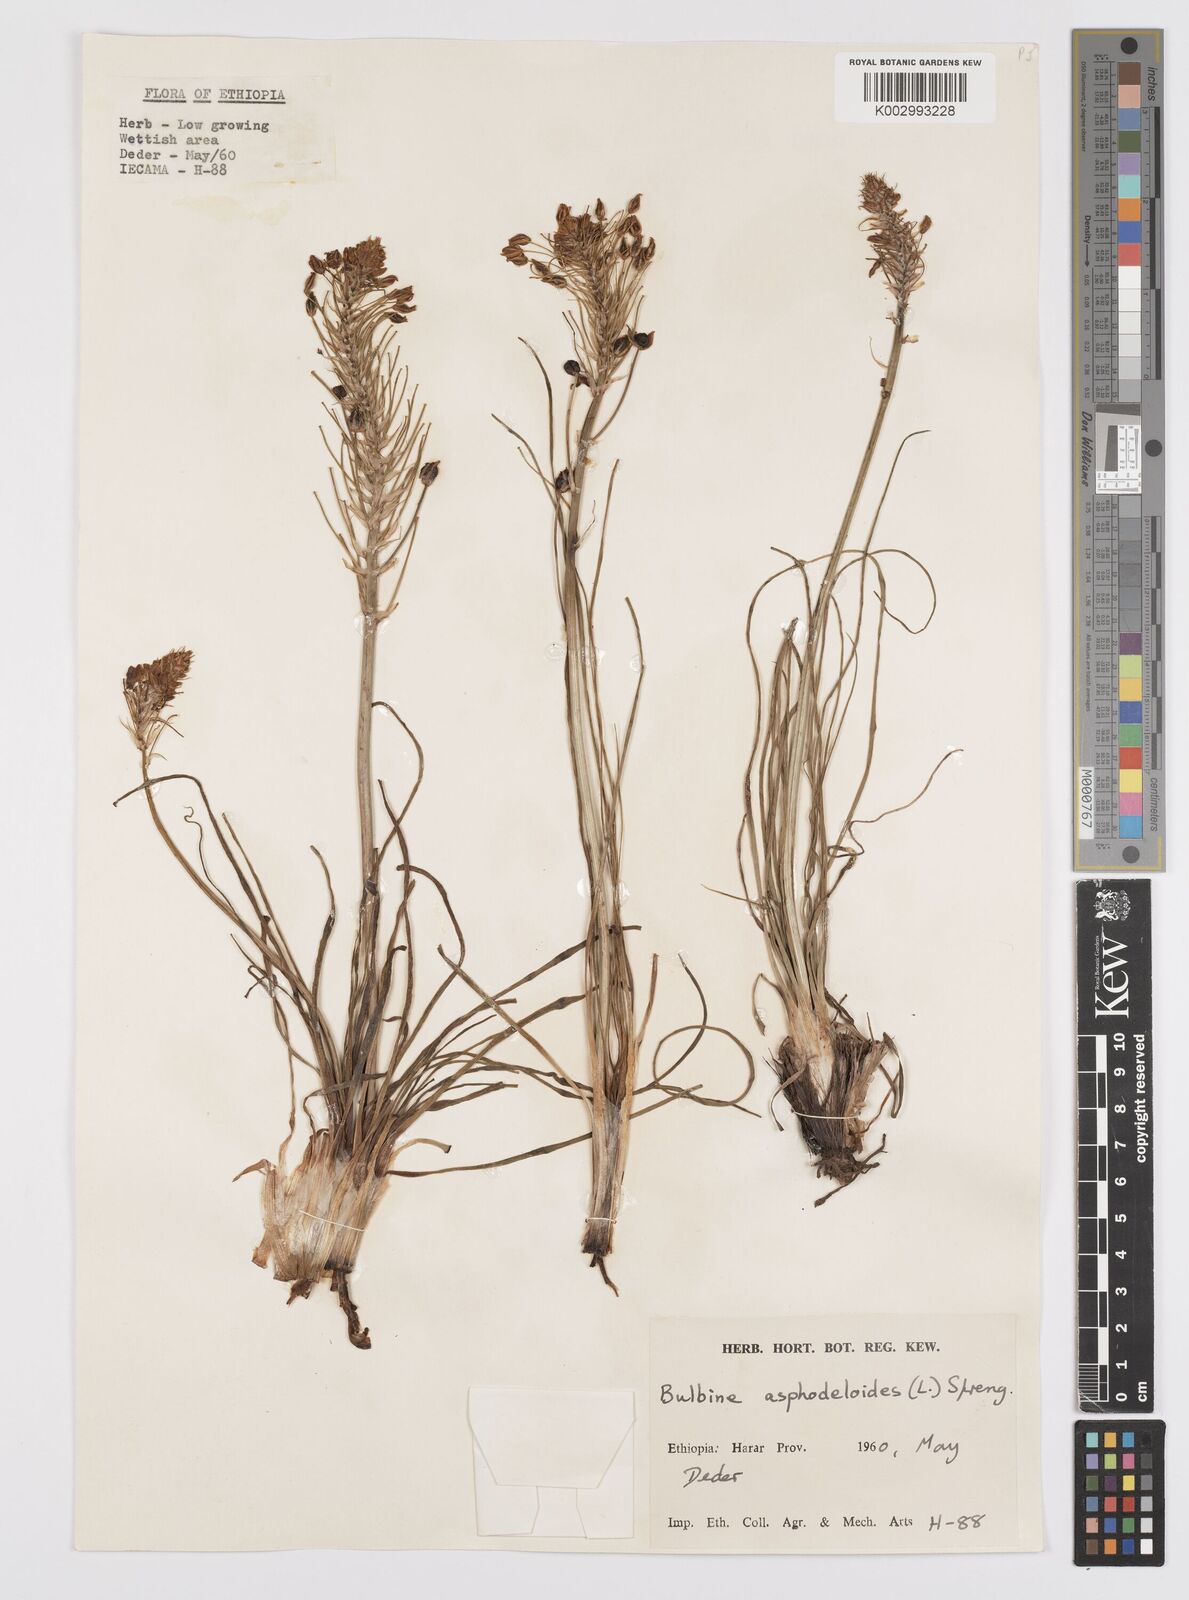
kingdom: Plantae
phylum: Tracheophyta
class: Liliopsida
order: Asparagales
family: Asphodelaceae
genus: Bulbine
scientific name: Bulbine abyssinica
